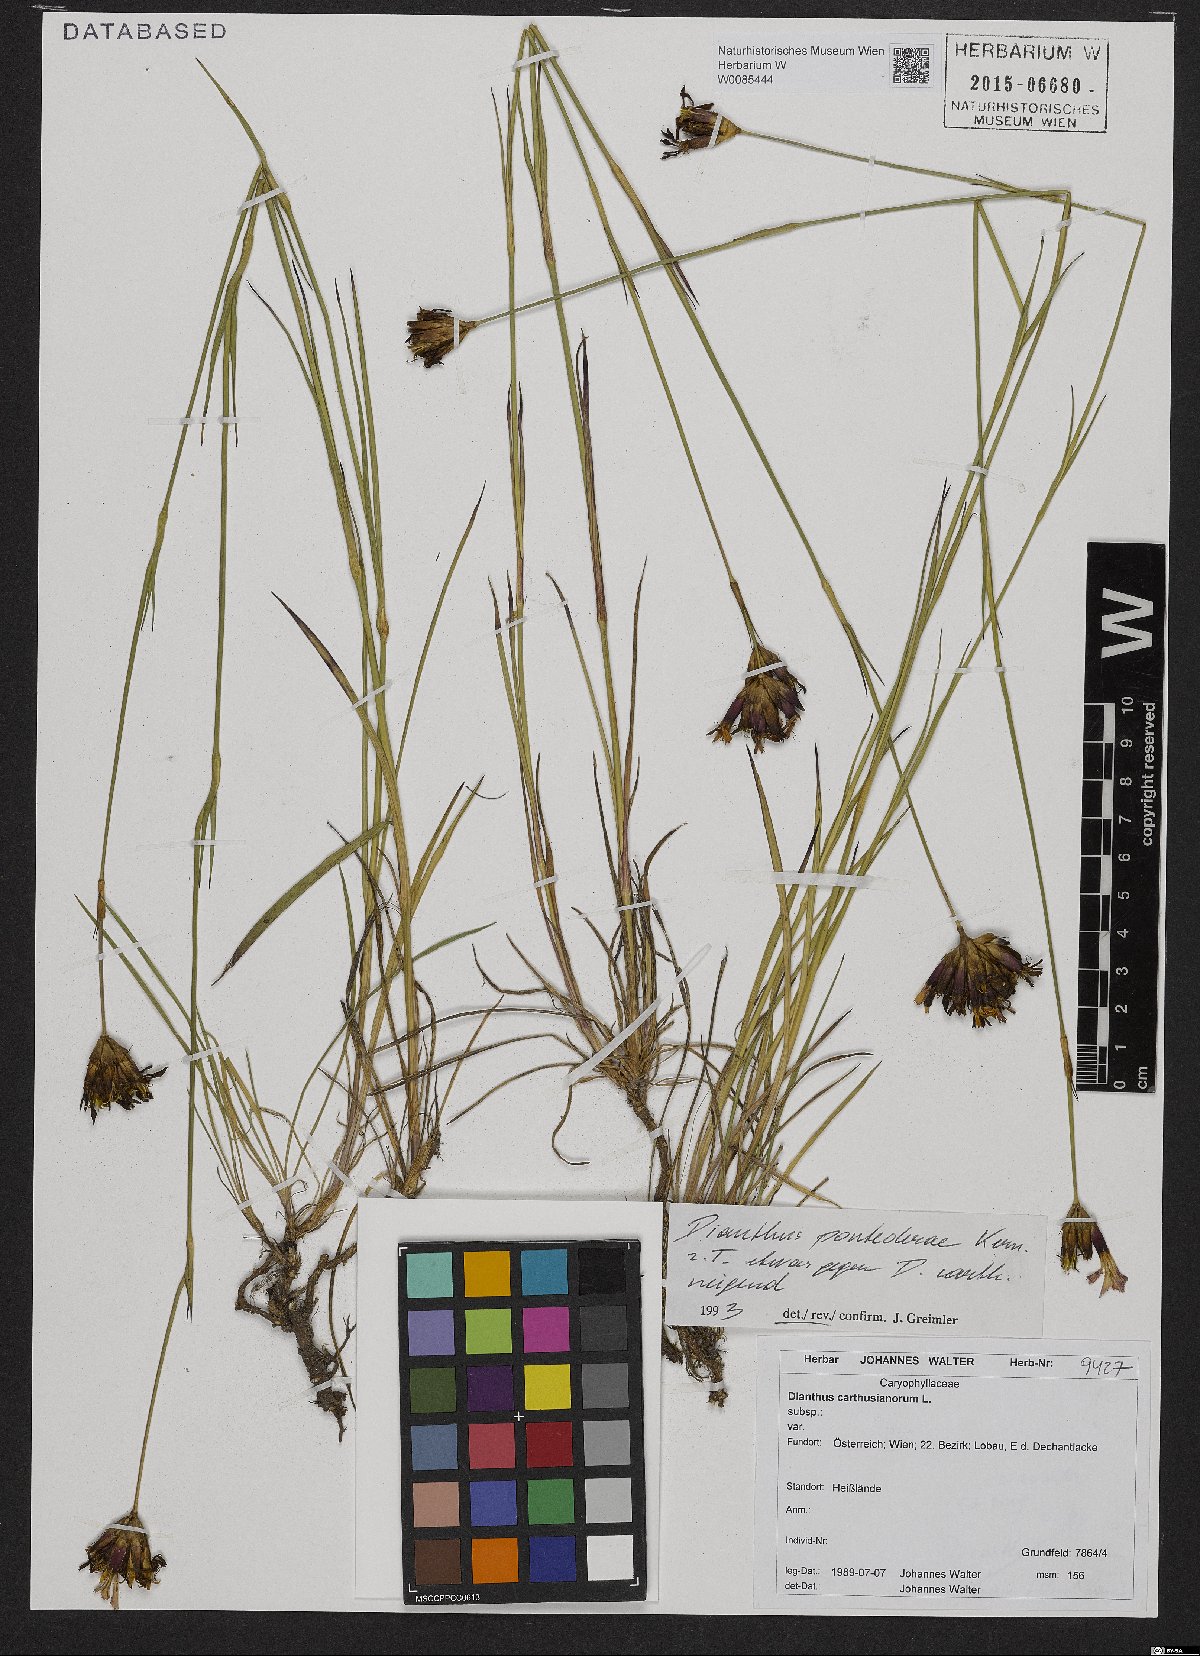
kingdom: Plantae
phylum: Tracheophyta
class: Magnoliopsida
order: Caryophyllales
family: Caryophyllaceae
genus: Dianthus
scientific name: Dianthus pontederae
